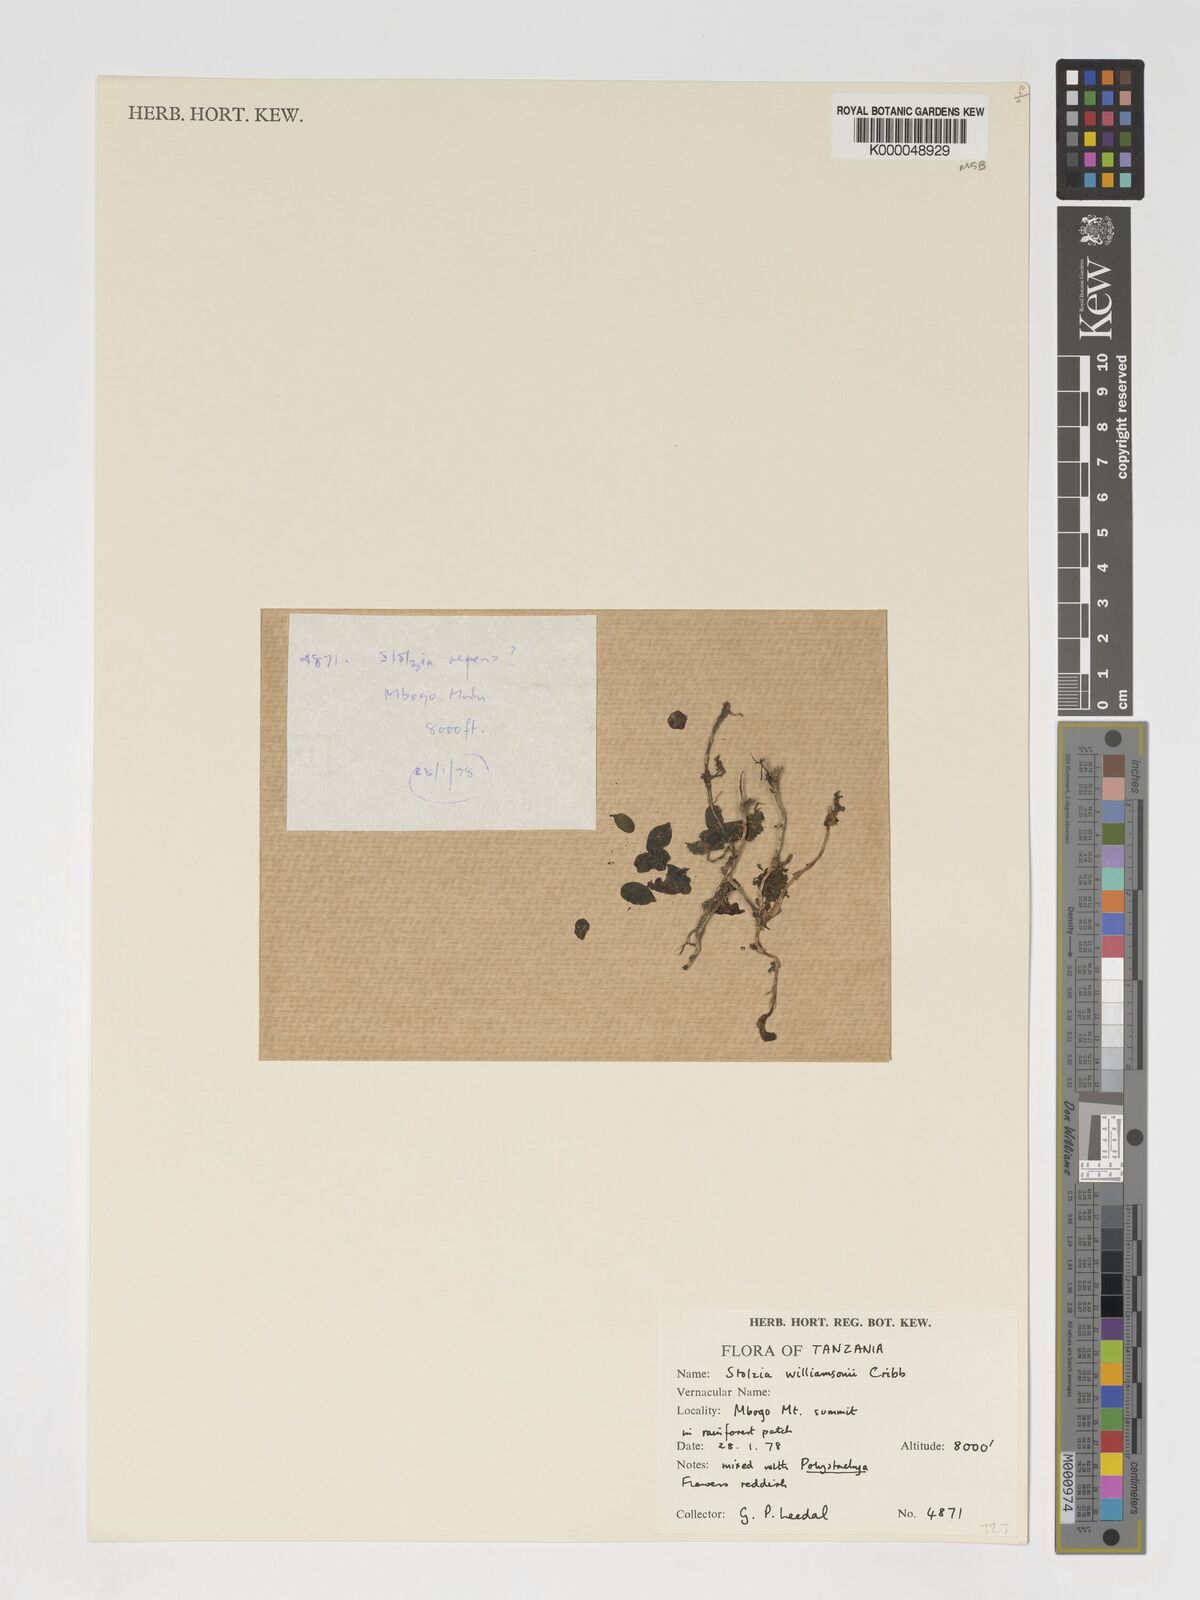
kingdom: Plantae
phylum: Tracheophyta
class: Liliopsida
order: Asparagales
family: Orchidaceae
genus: Porpax
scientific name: Porpax williamsonii
